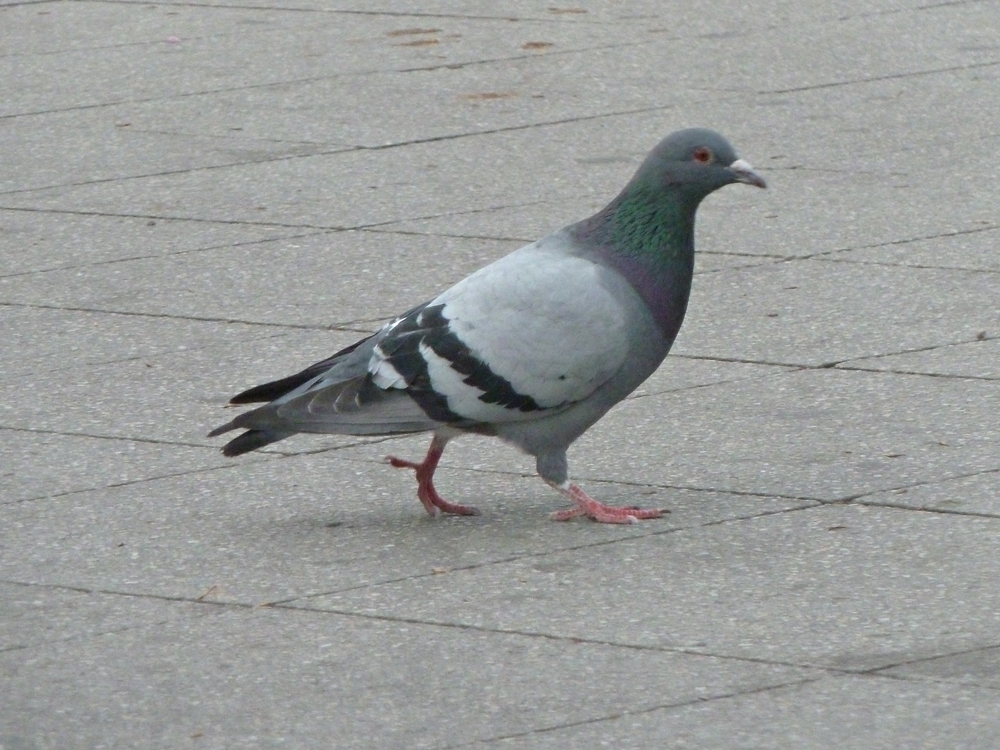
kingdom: Animalia
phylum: Chordata
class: Aves
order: Columbiformes
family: Columbidae
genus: Columba
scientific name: Columba livia
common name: Rock pigeon
